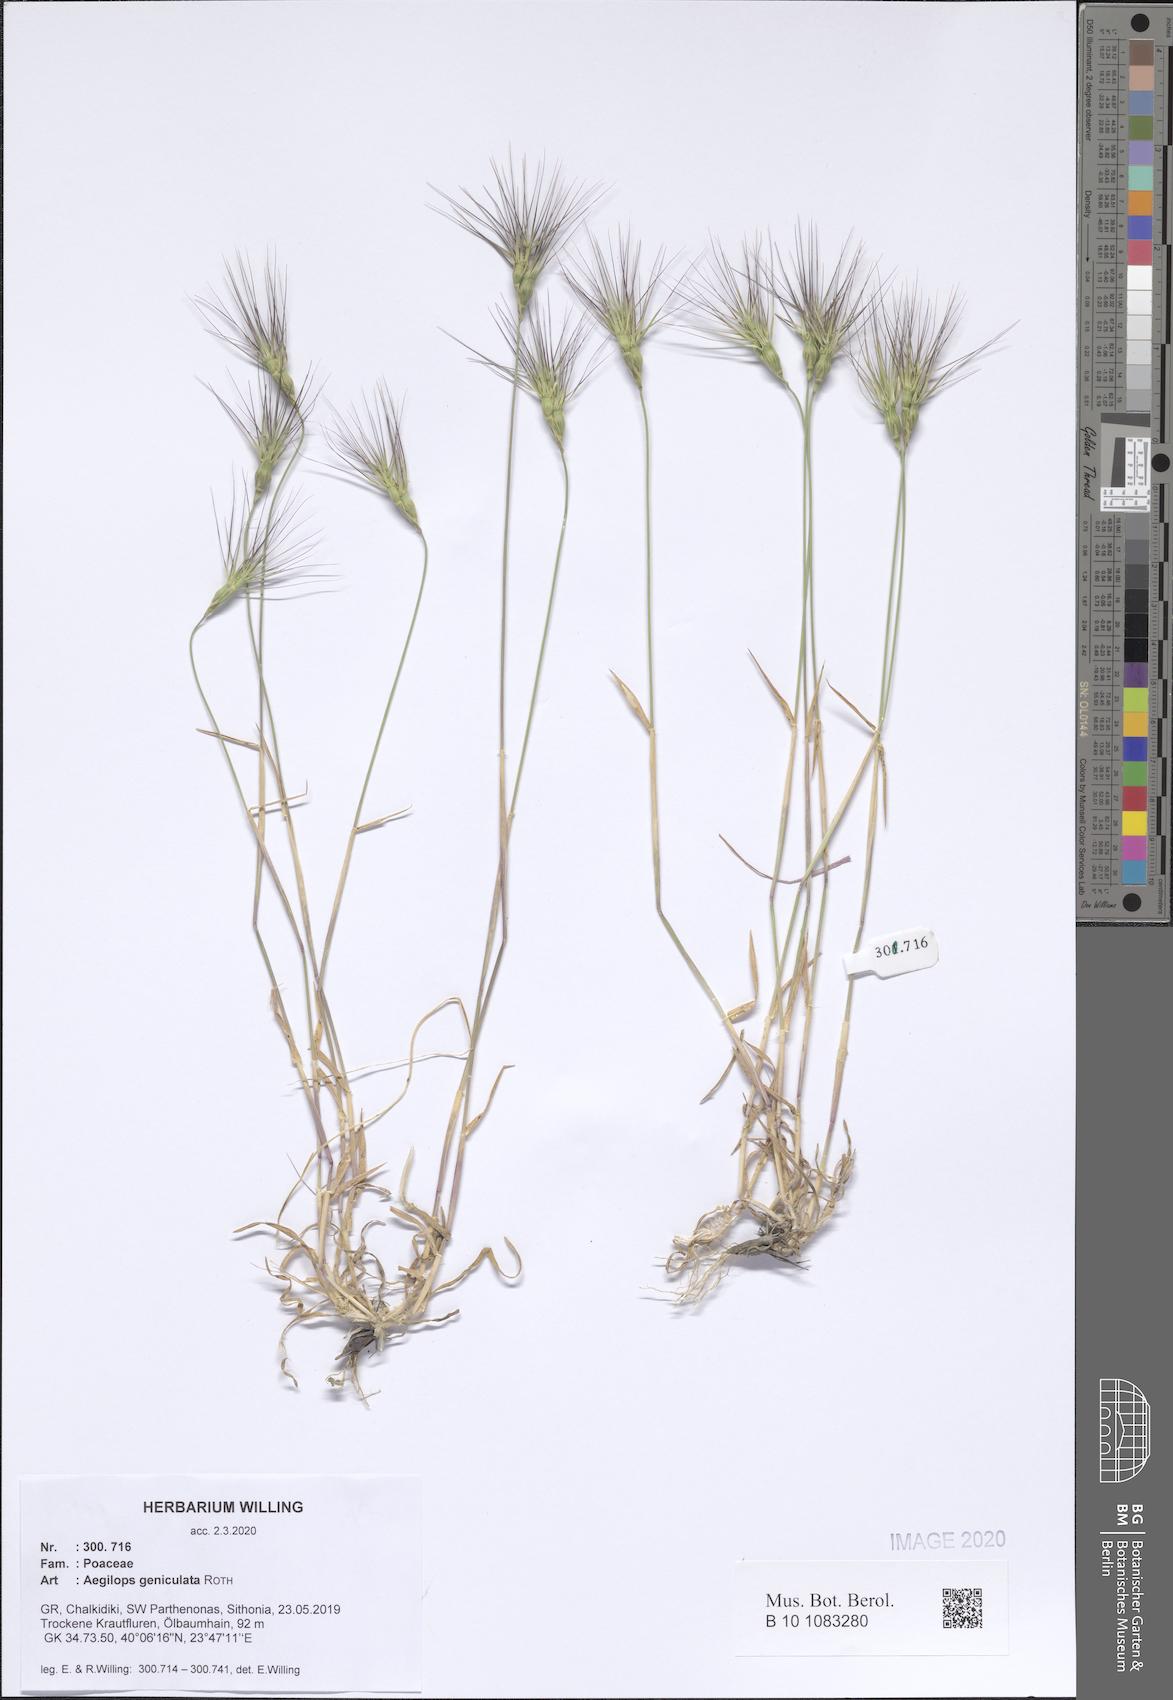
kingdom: Plantae
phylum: Tracheophyta
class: Liliopsida
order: Poales
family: Poaceae
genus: Aegilops
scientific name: Aegilops geniculata
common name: Ovate goat grass
